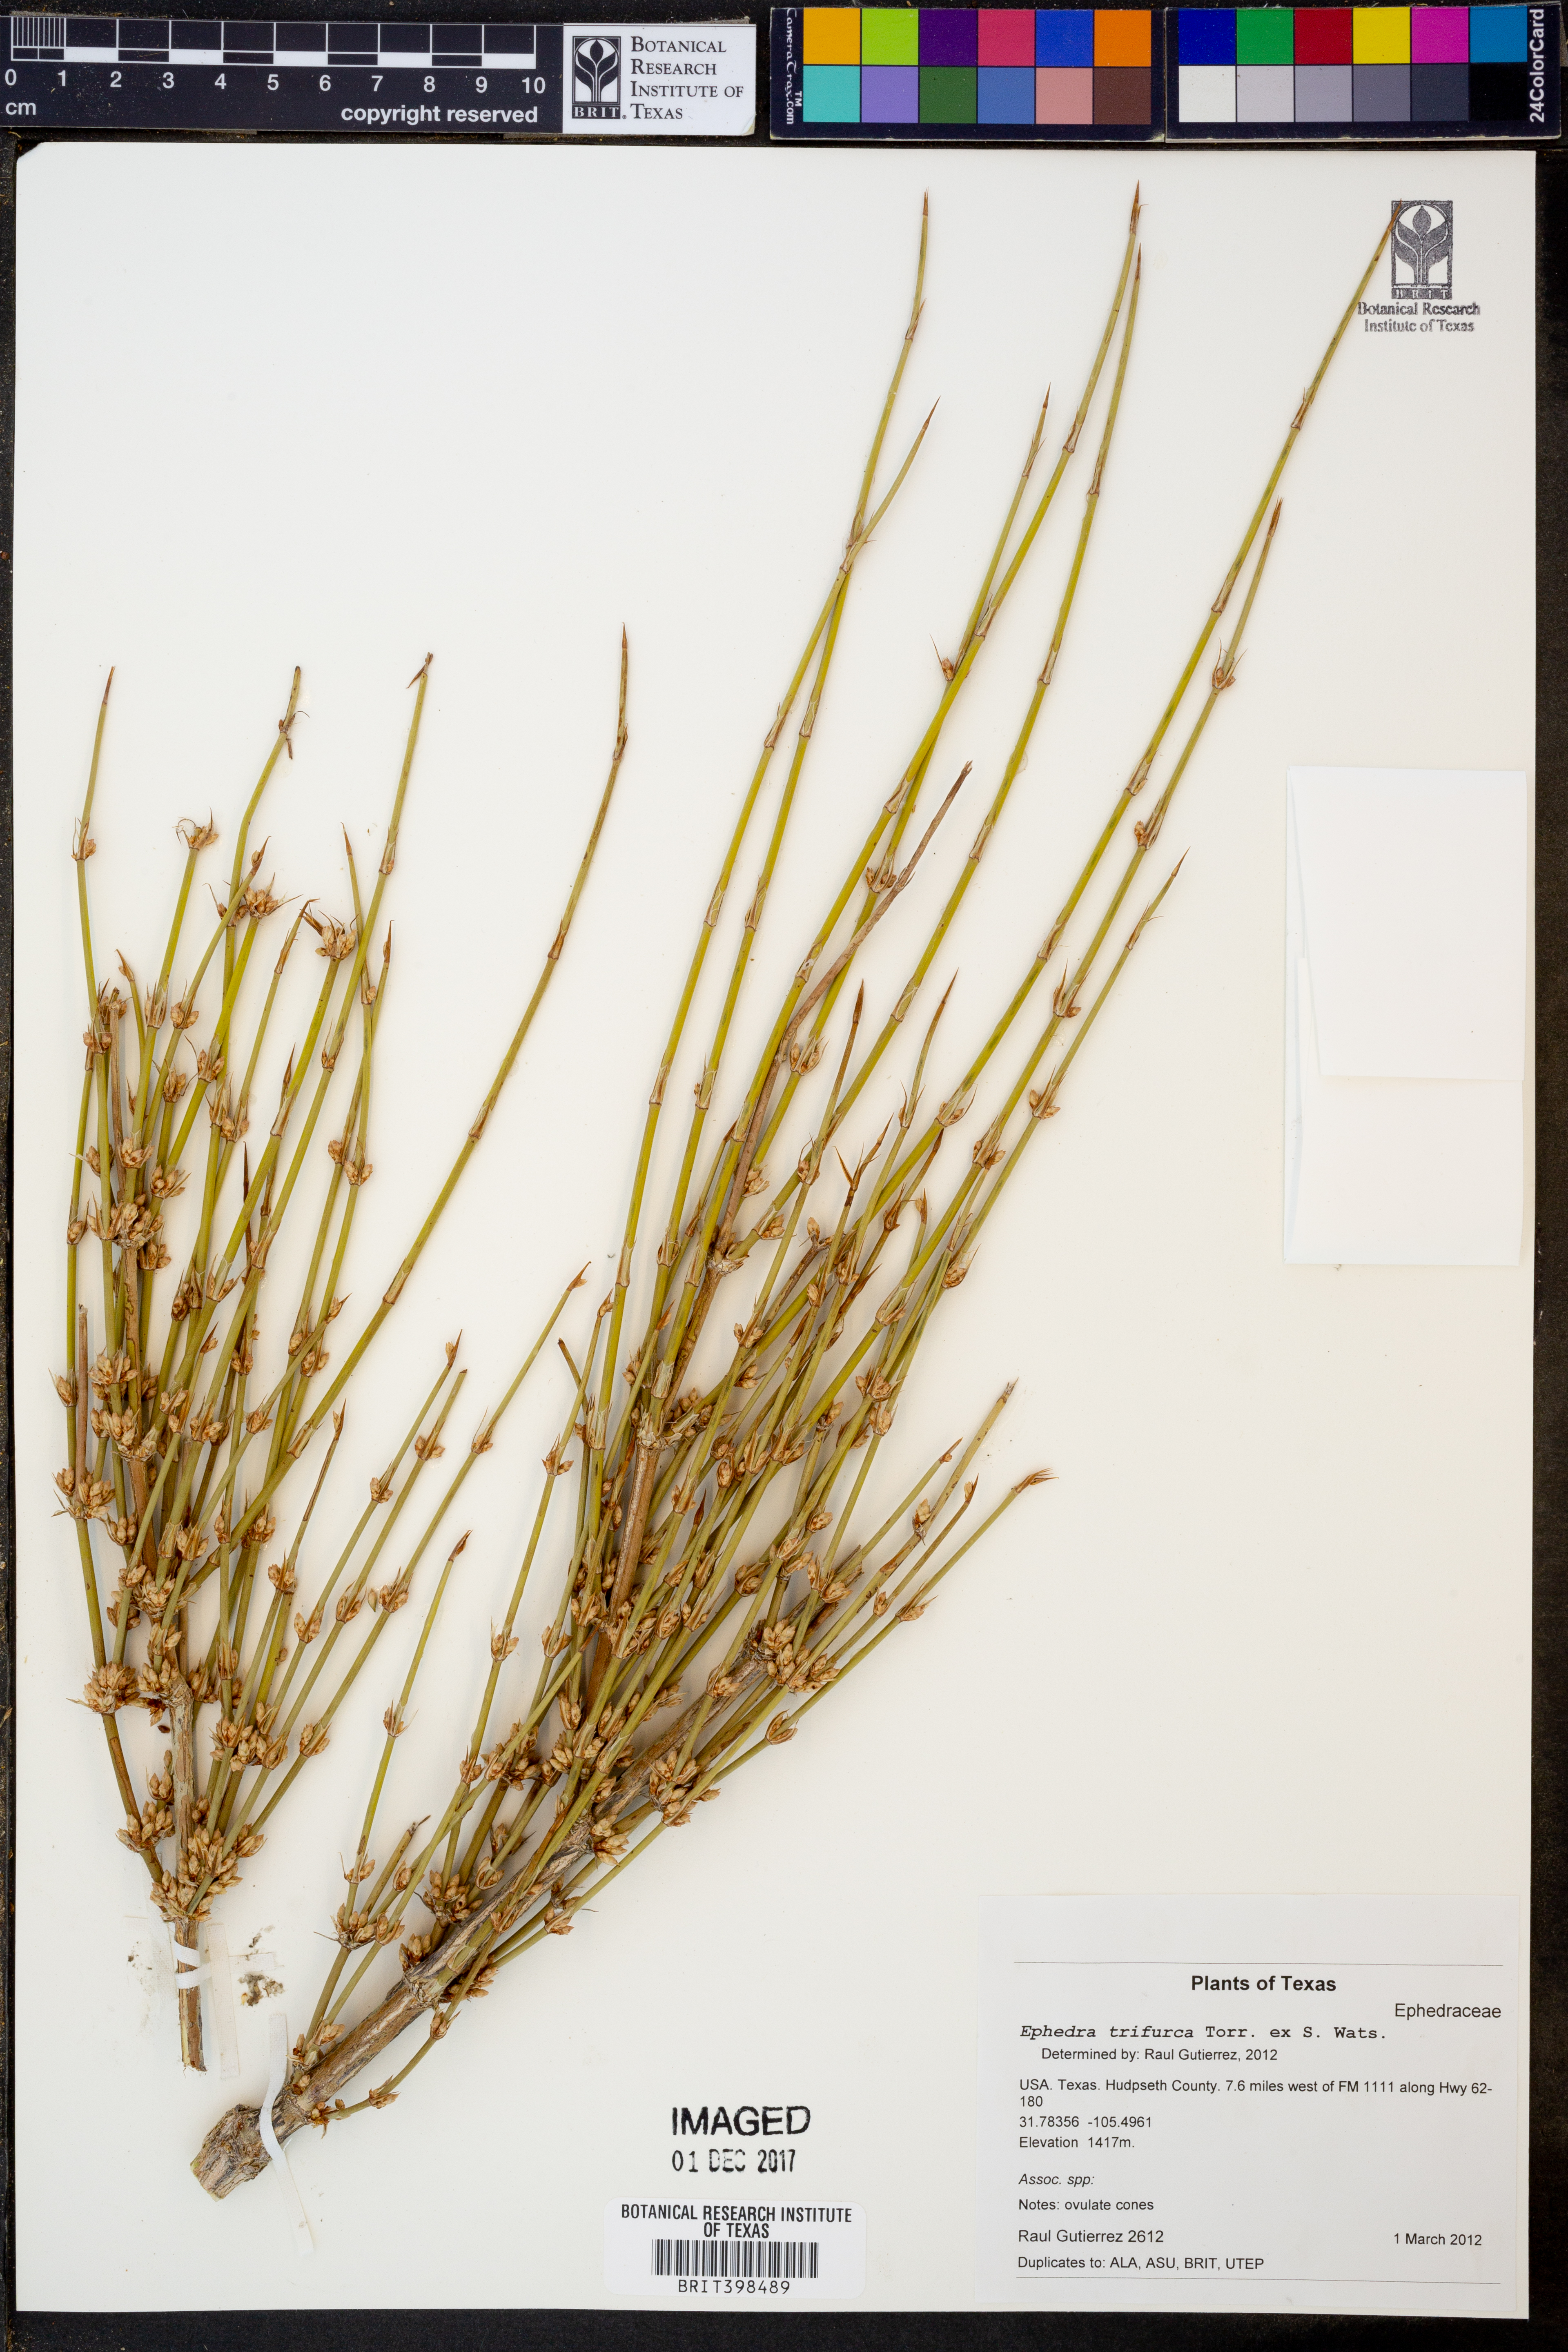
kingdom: Plantae
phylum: Tracheophyta
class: Gnetopsida
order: Ephedrales
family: Ephedraceae
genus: Ephedra
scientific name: Ephedra trifurca
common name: Mexican-tea
